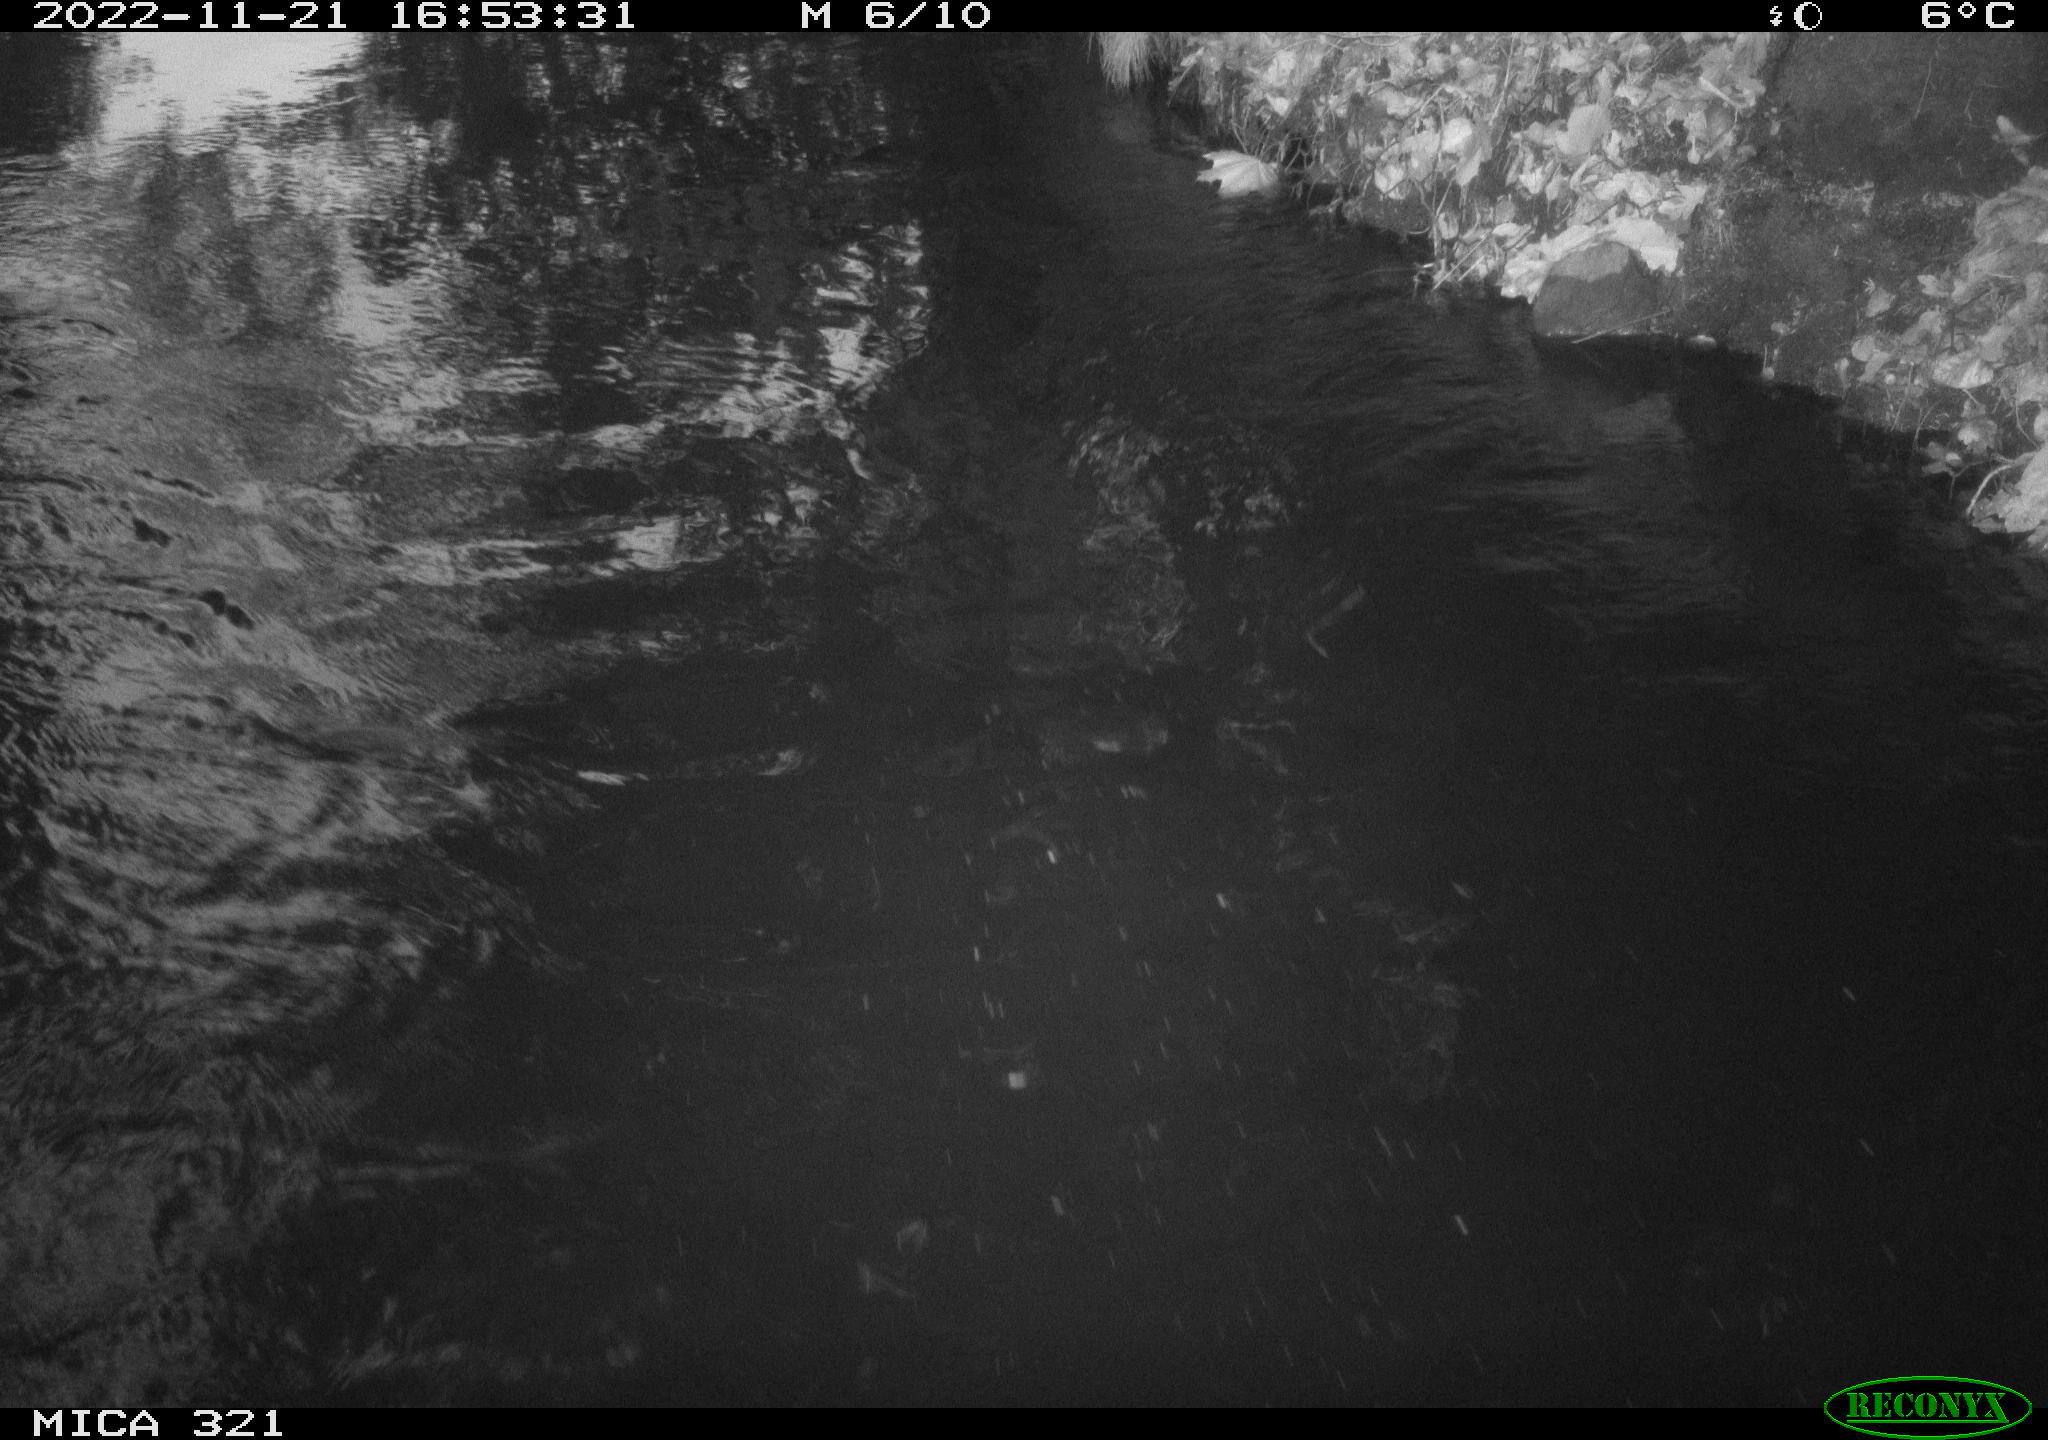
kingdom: Animalia
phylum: Chordata
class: Aves
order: Anseriformes
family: Anatidae
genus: Anas
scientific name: Anas
